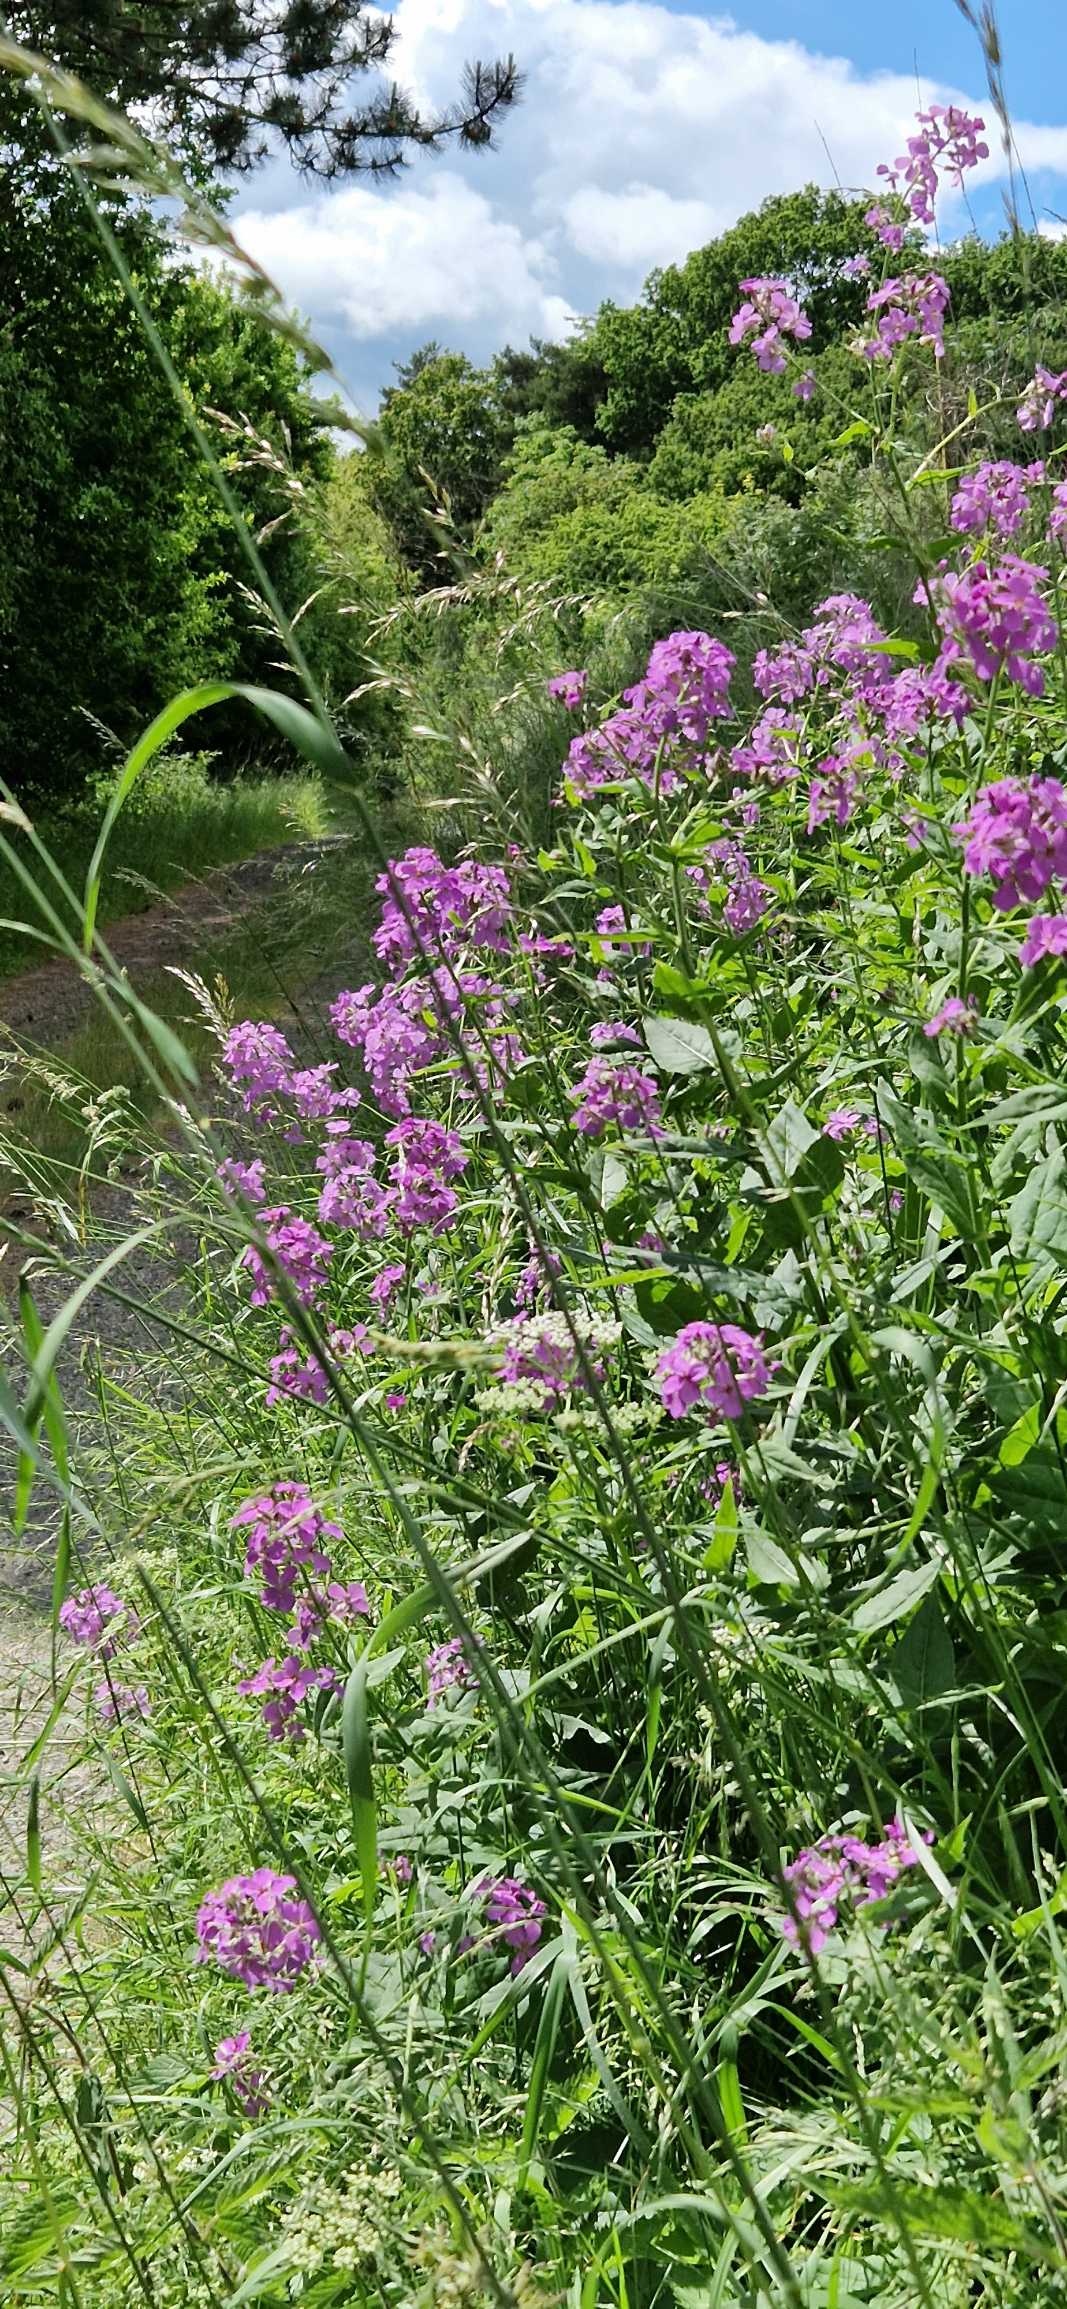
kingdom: Plantae
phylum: Tracheophyta
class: Magnoliopsida
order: Brassicales
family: Brassicaceae
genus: Hesperis
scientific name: Hesperis matronalis
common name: Aftenstjerne
